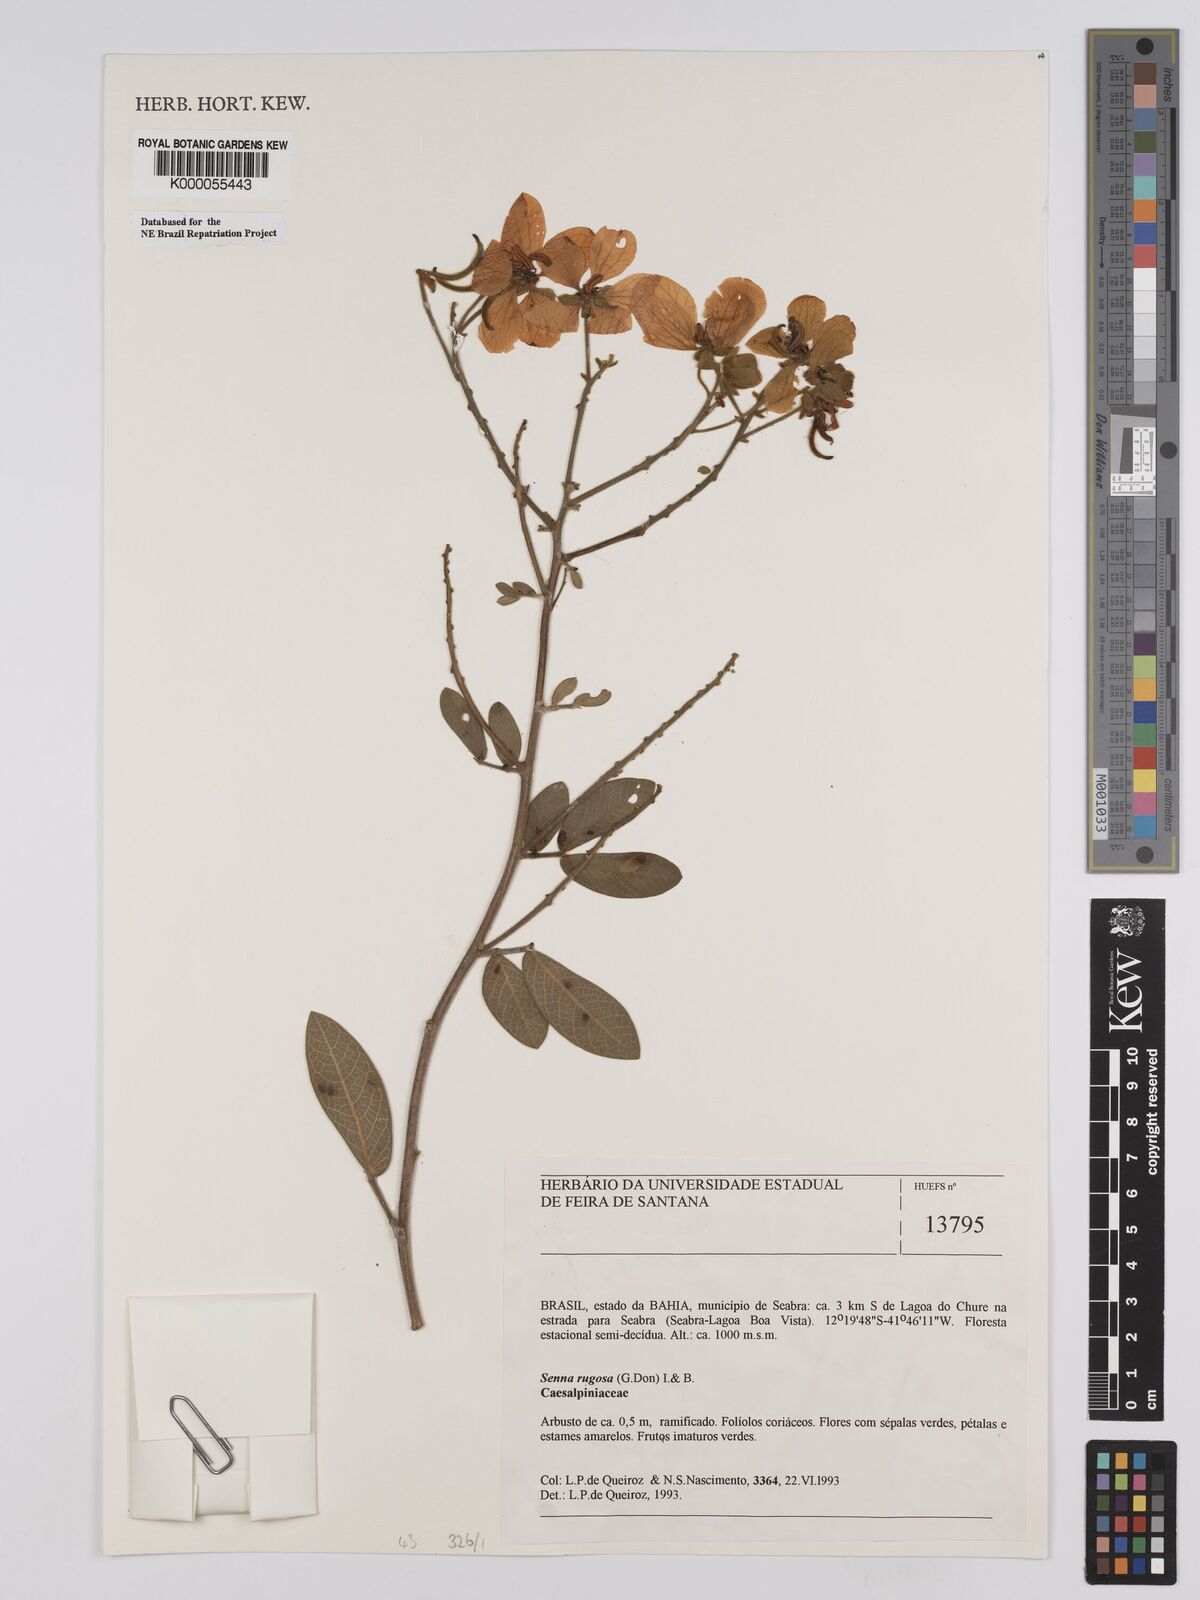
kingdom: Plantae
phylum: Tracheophyta
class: Magnoliopsida
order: Fabales
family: Fabaceae
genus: Senna
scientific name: Senna rugosa
